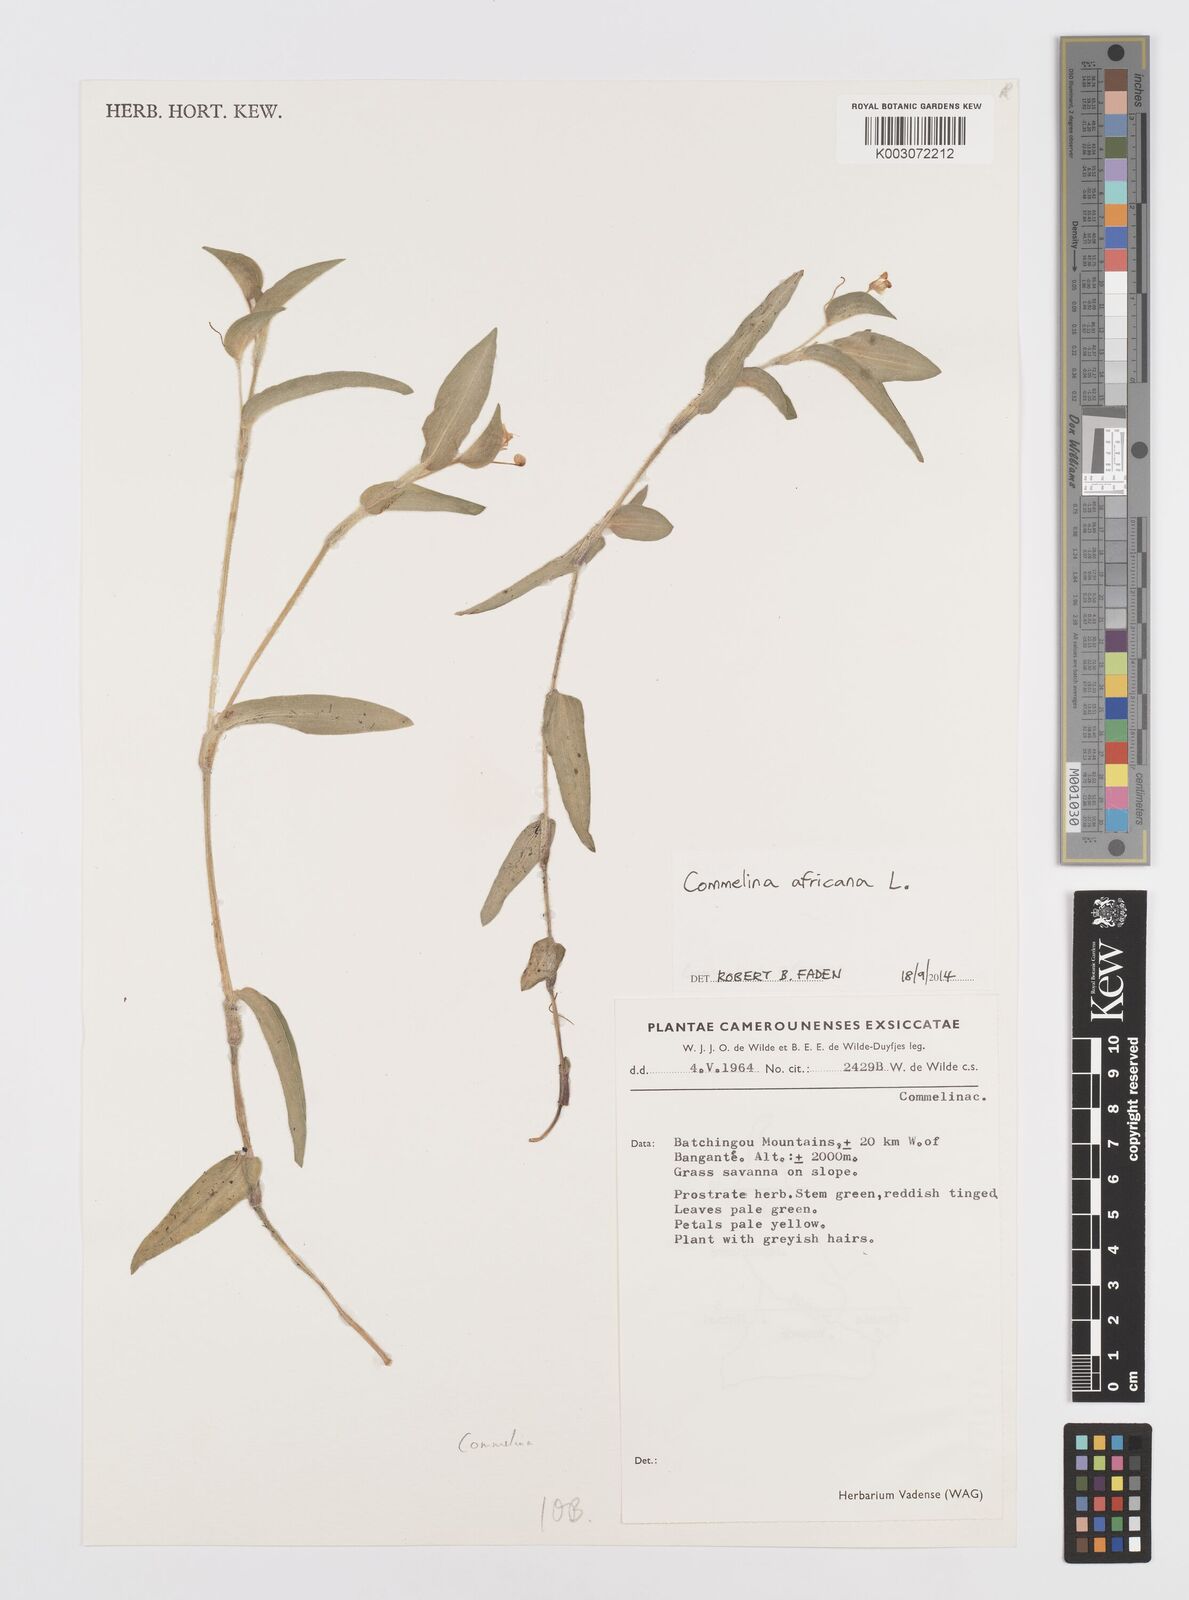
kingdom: Plantae
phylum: Tracheophyta
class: Liliopsida
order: Commelinales
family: Commelinaceae
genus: Commelina
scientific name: Commelina africana
